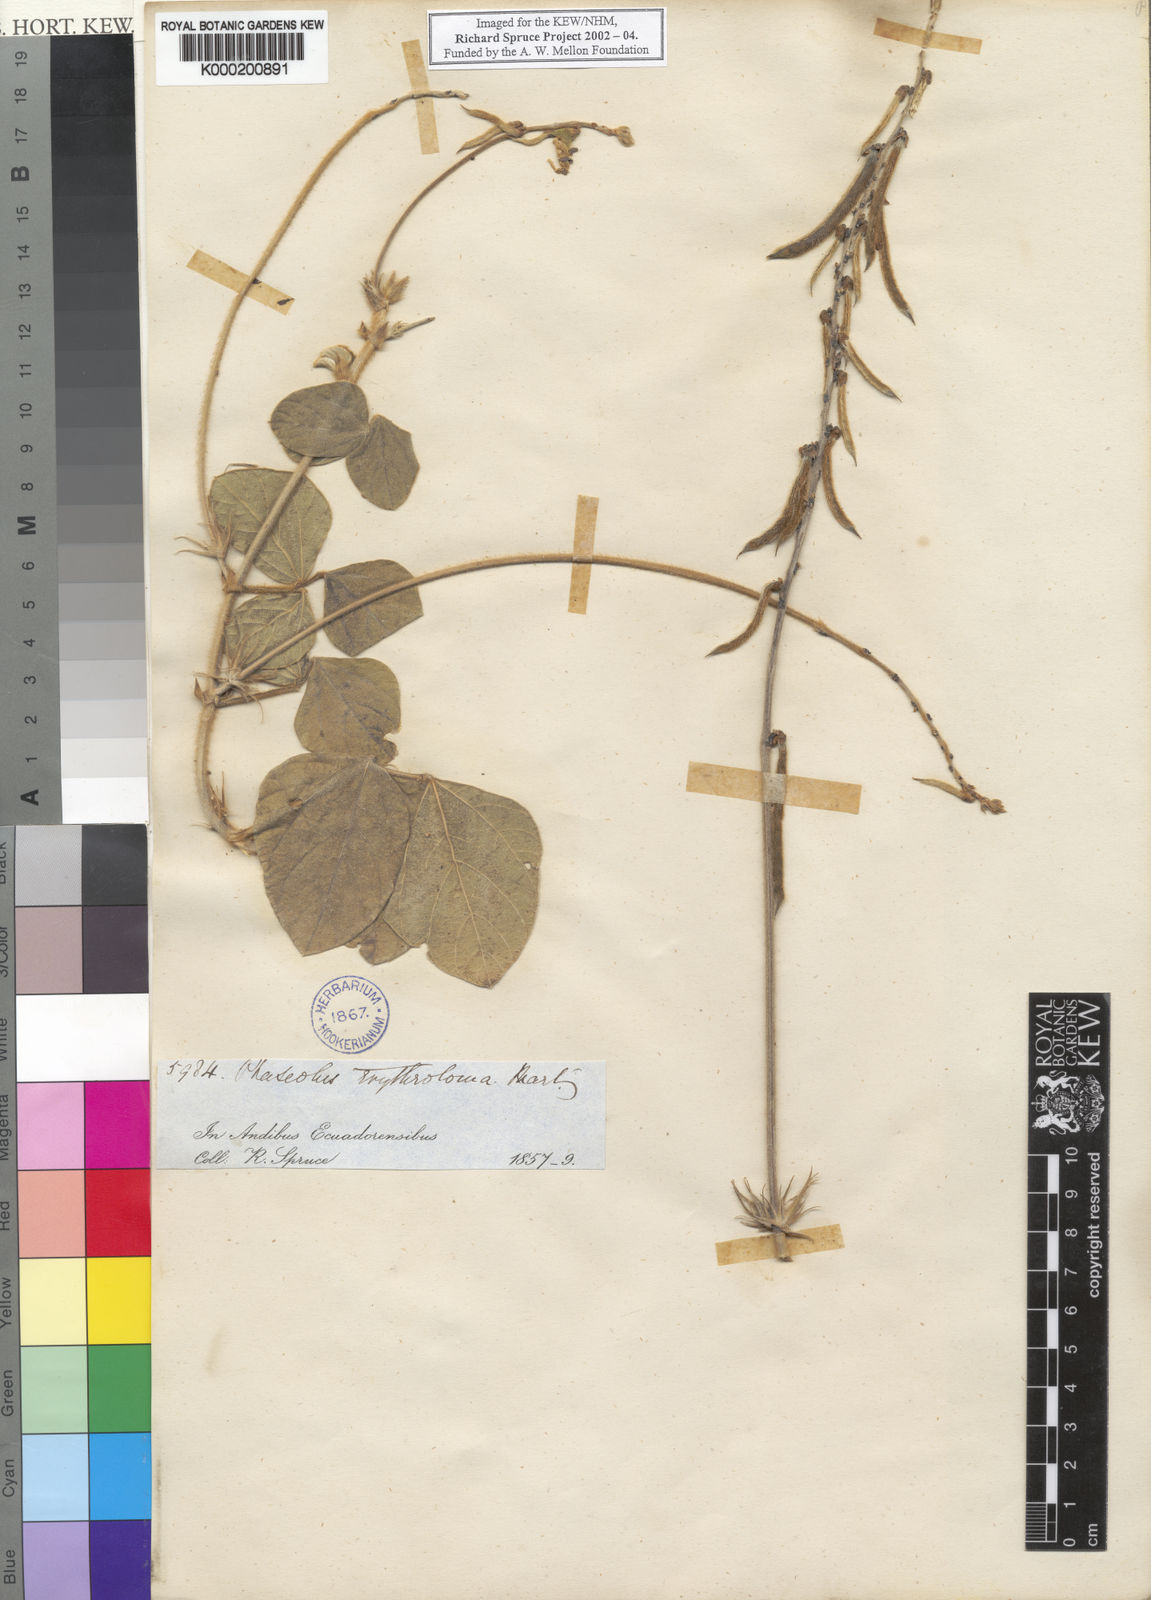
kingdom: Plantae
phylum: Tracheophyta
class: Magnoliopsida
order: Fabales
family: Fabaceae
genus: Macroptilium
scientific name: Macroptilium erythroloma
